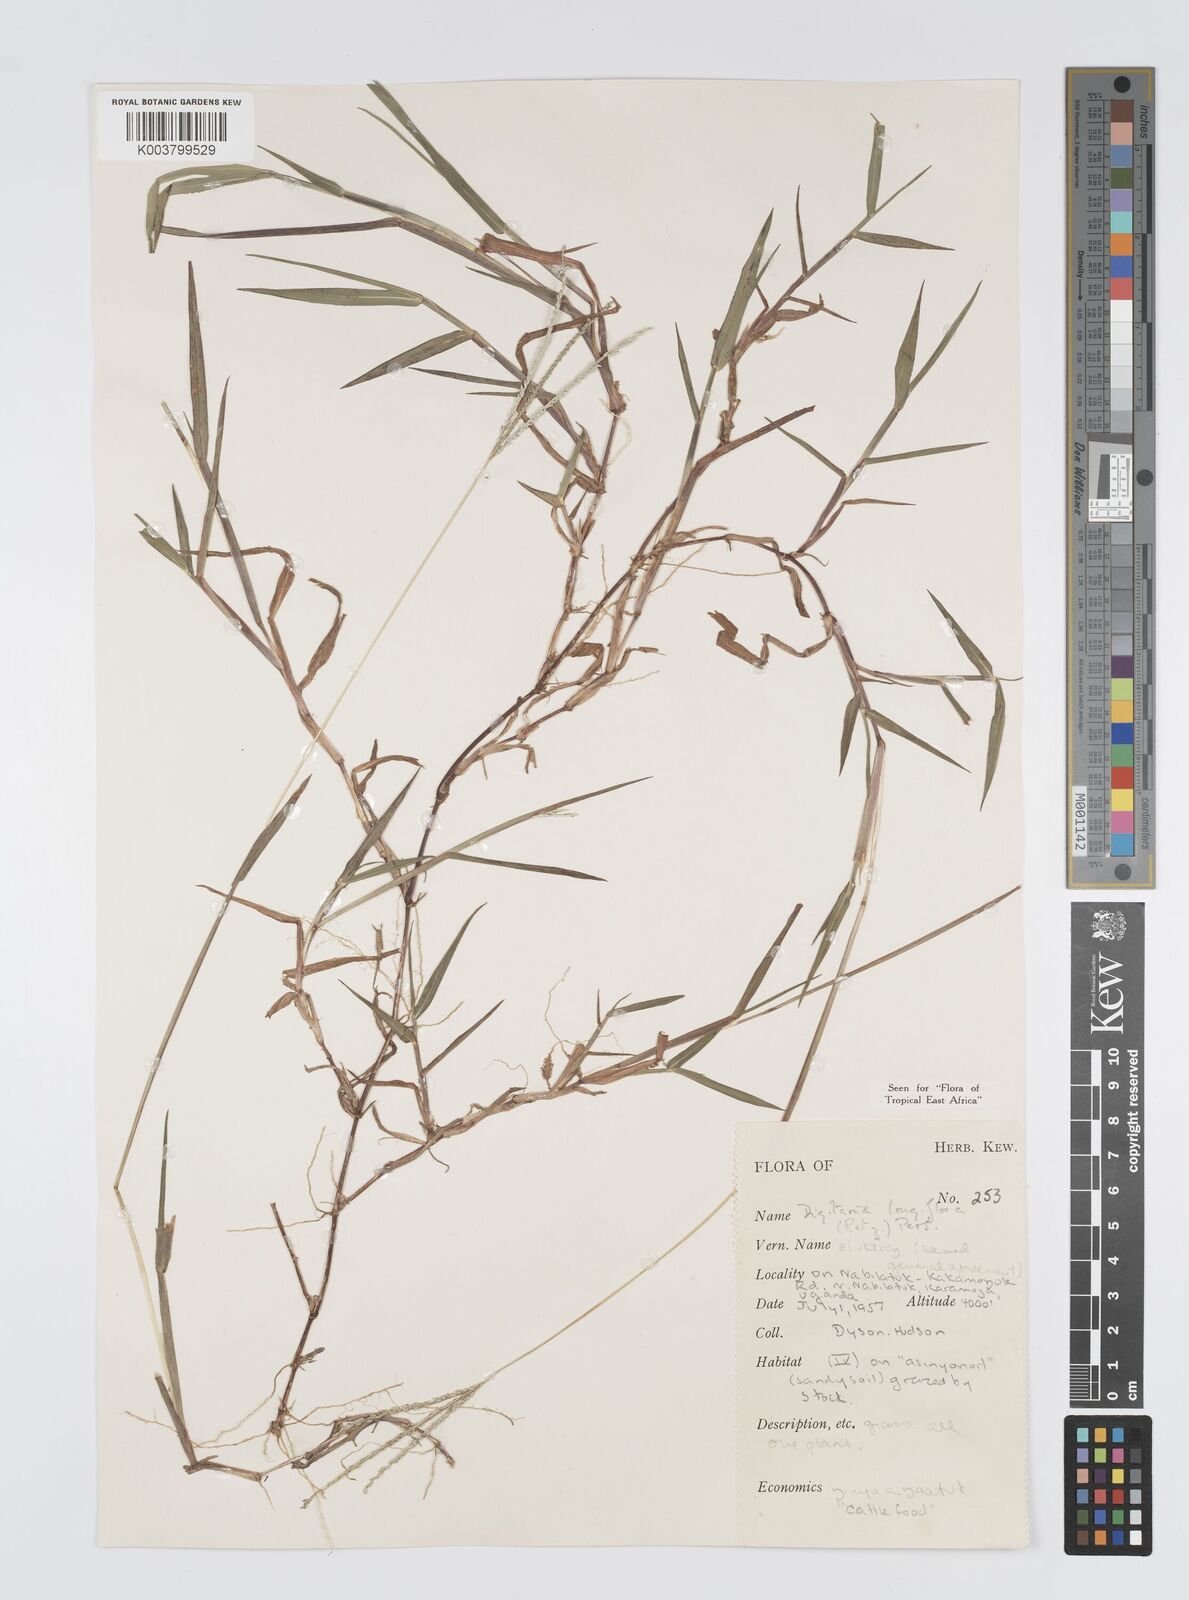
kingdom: Plantae
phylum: Tracheophyta
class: Liliopsida
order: Poales
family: Poaceae
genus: Digitaria
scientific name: Digitaria longiflora
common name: Wire crabgrass
